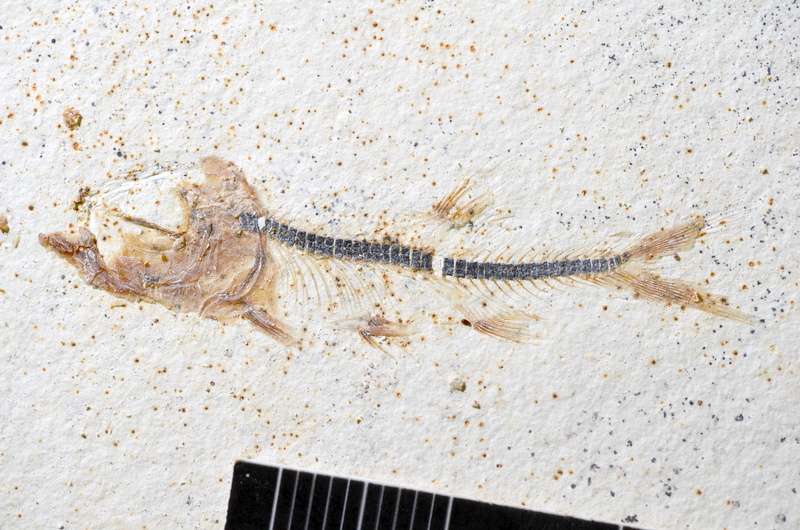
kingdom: Animalia
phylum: Chordata
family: Ascalaboidae
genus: Ebertichthys
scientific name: Ebertichthys ettlingensis
